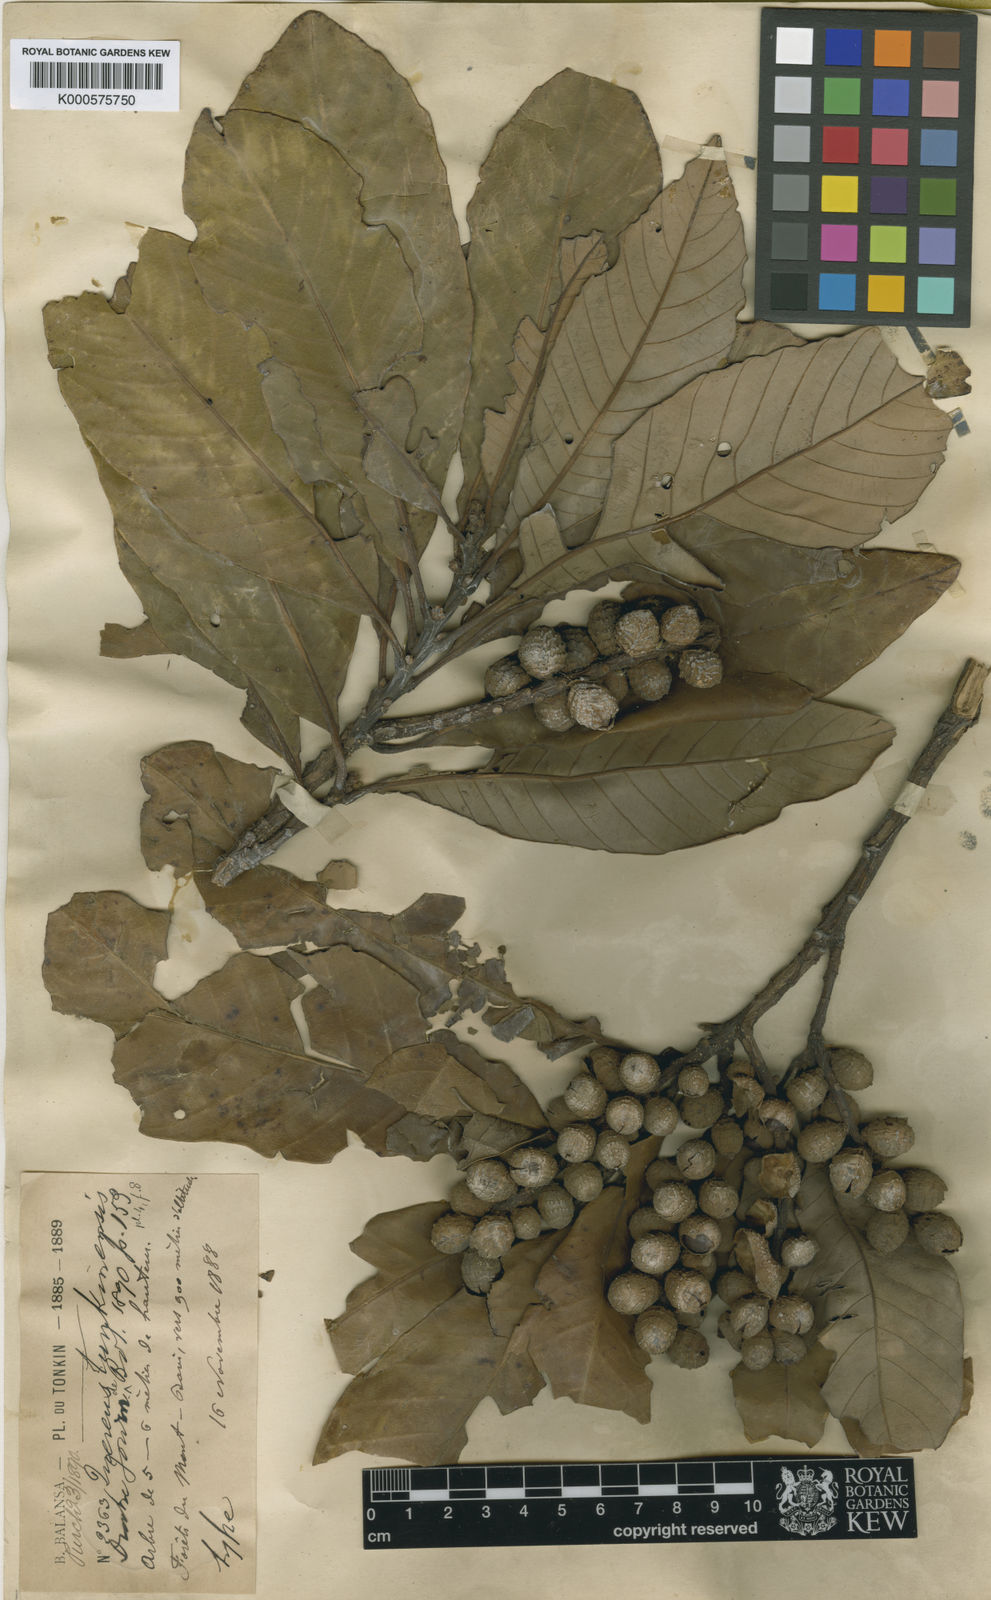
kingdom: Plantae
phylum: Tracheophyta
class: Magnoliopsida
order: Fagales
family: Fagaceae
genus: Castanopsis
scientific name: Castanopsis fissa
